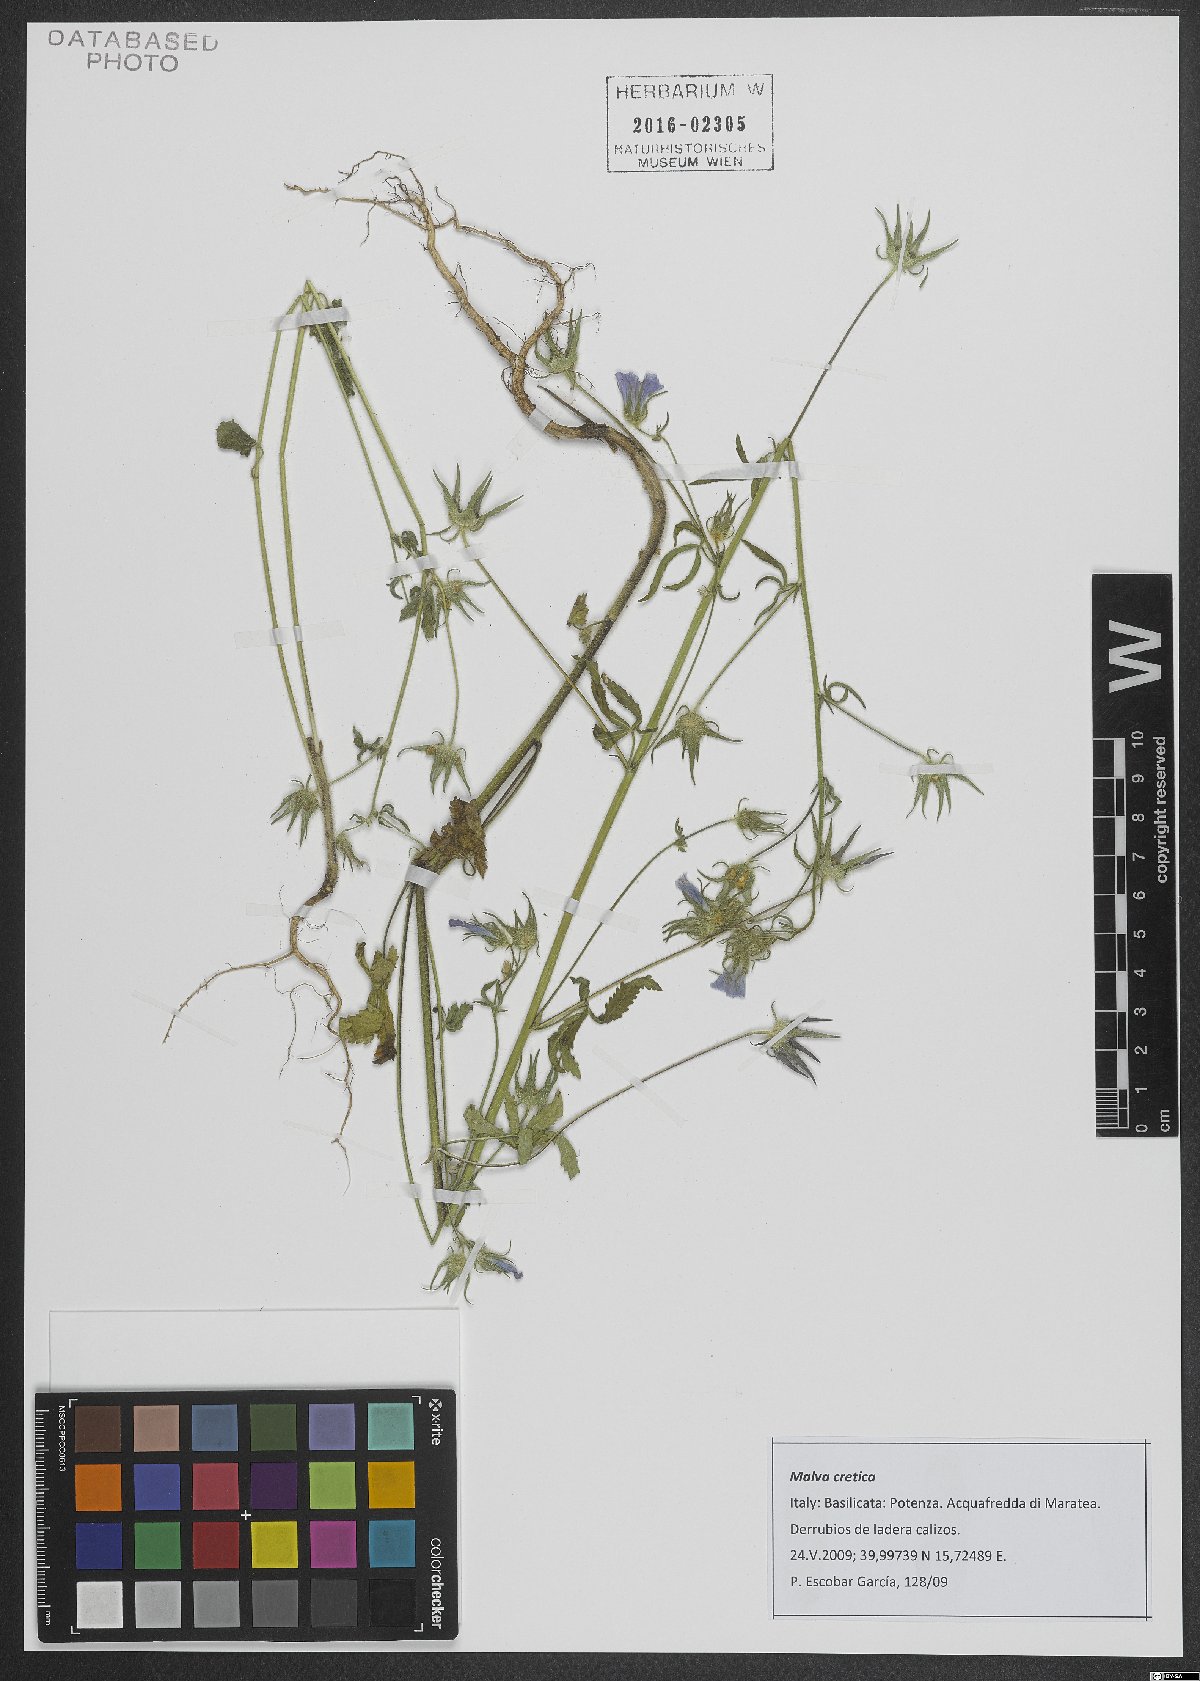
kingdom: Plantae
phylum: Tracheophyta
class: Magnoliopsida
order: Malvales
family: Malvaceae
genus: Malva
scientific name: Malva cretica
